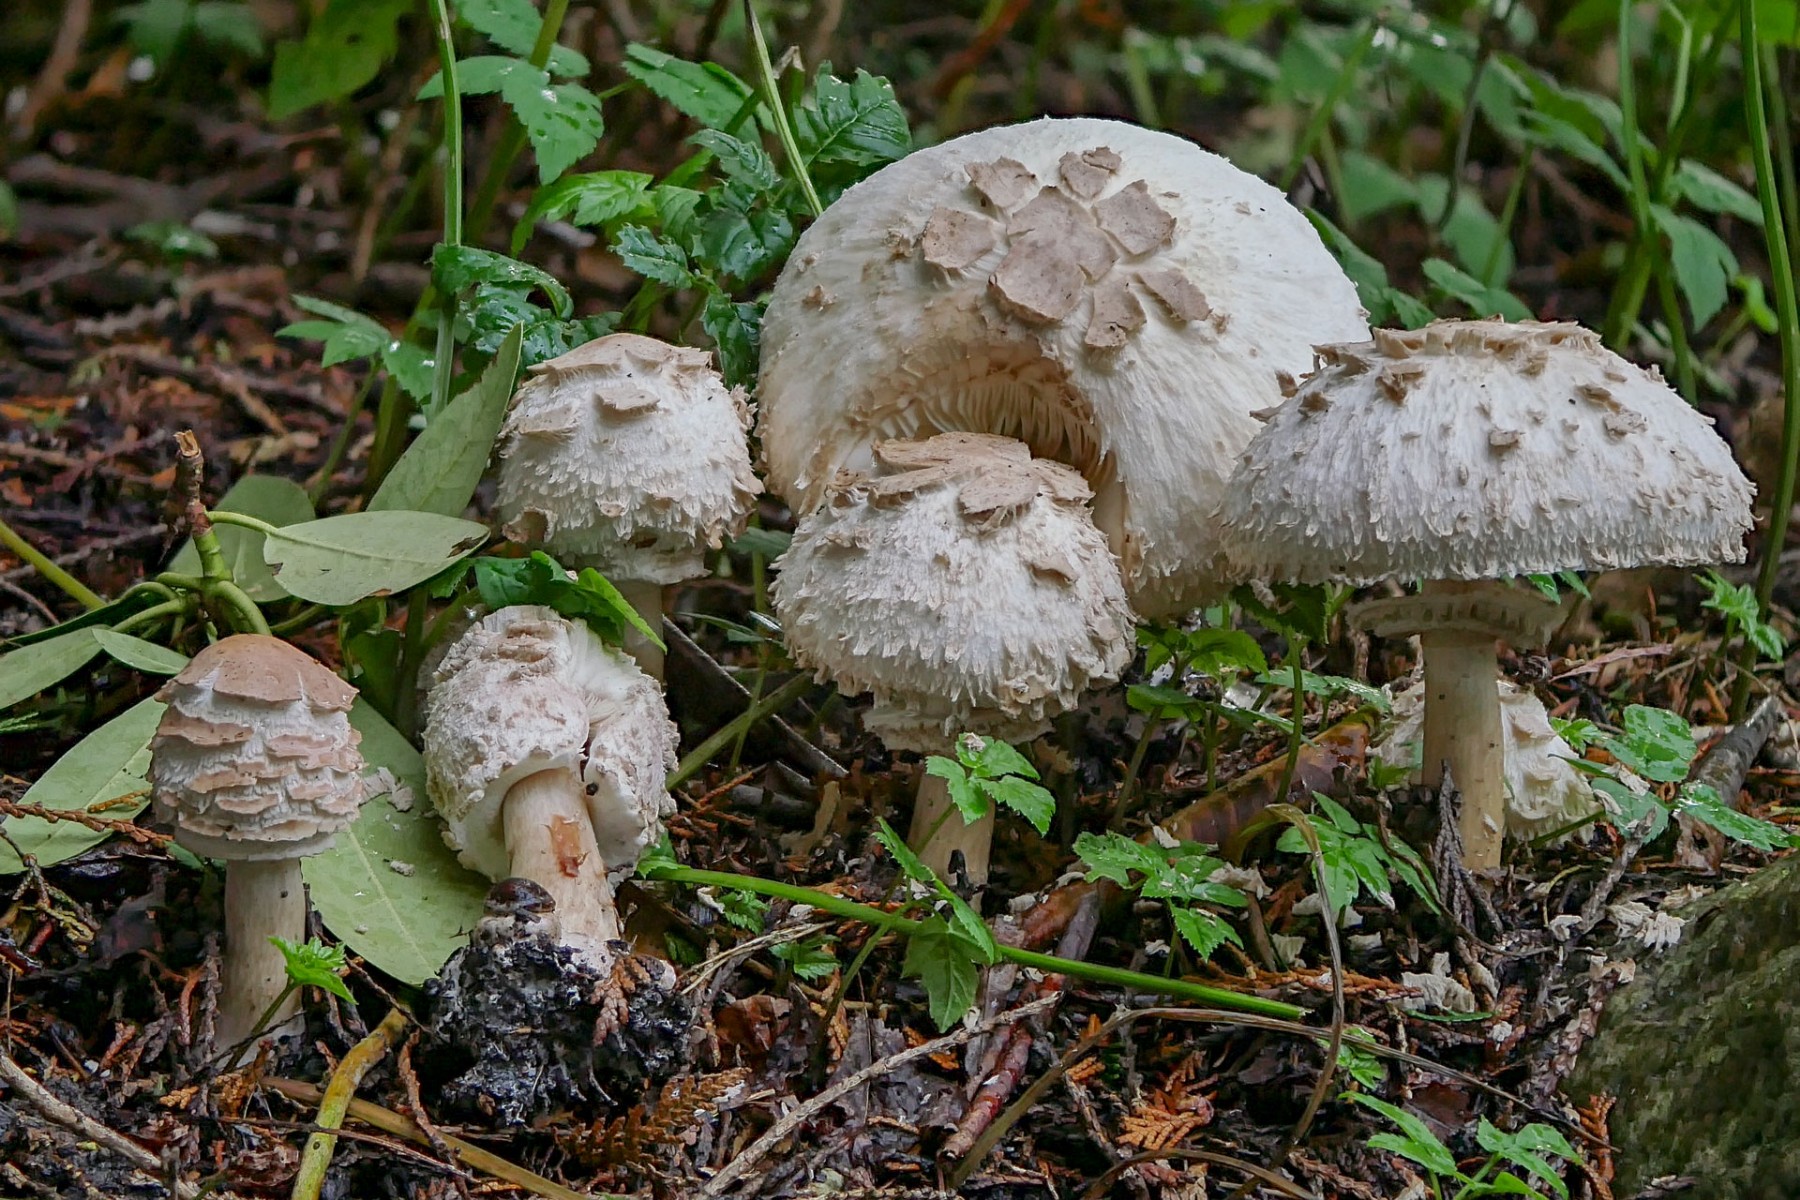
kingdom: Fungi
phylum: Basidiomycota
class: Agaricomycetes
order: Agaricales
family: Agaricaceae
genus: Chlorophyllum
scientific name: Chlorophyllum olivieri
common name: almindelig rabarberhat
